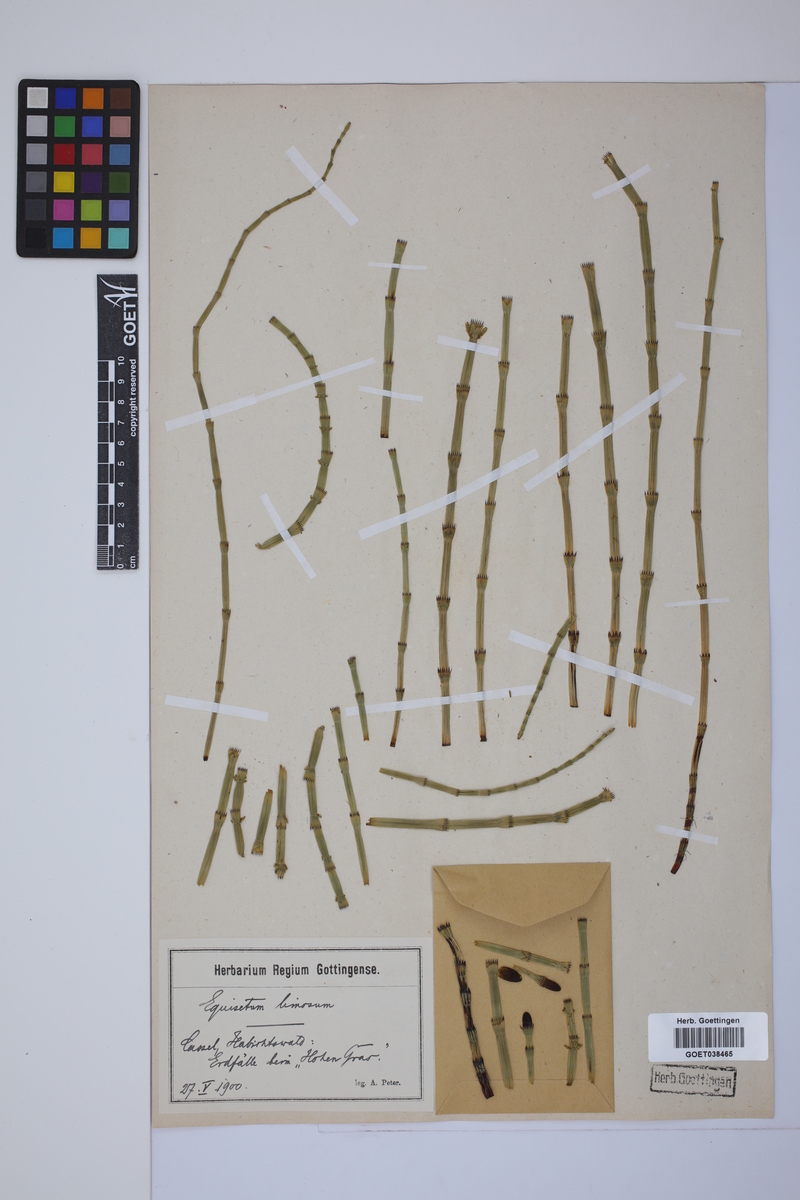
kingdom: Plantae
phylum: Tracheophyta
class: Polypodiopsida
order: Equisetales
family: Equisetaceae
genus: Equisetum
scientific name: Equisetum fluviatile
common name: Water horsetail
